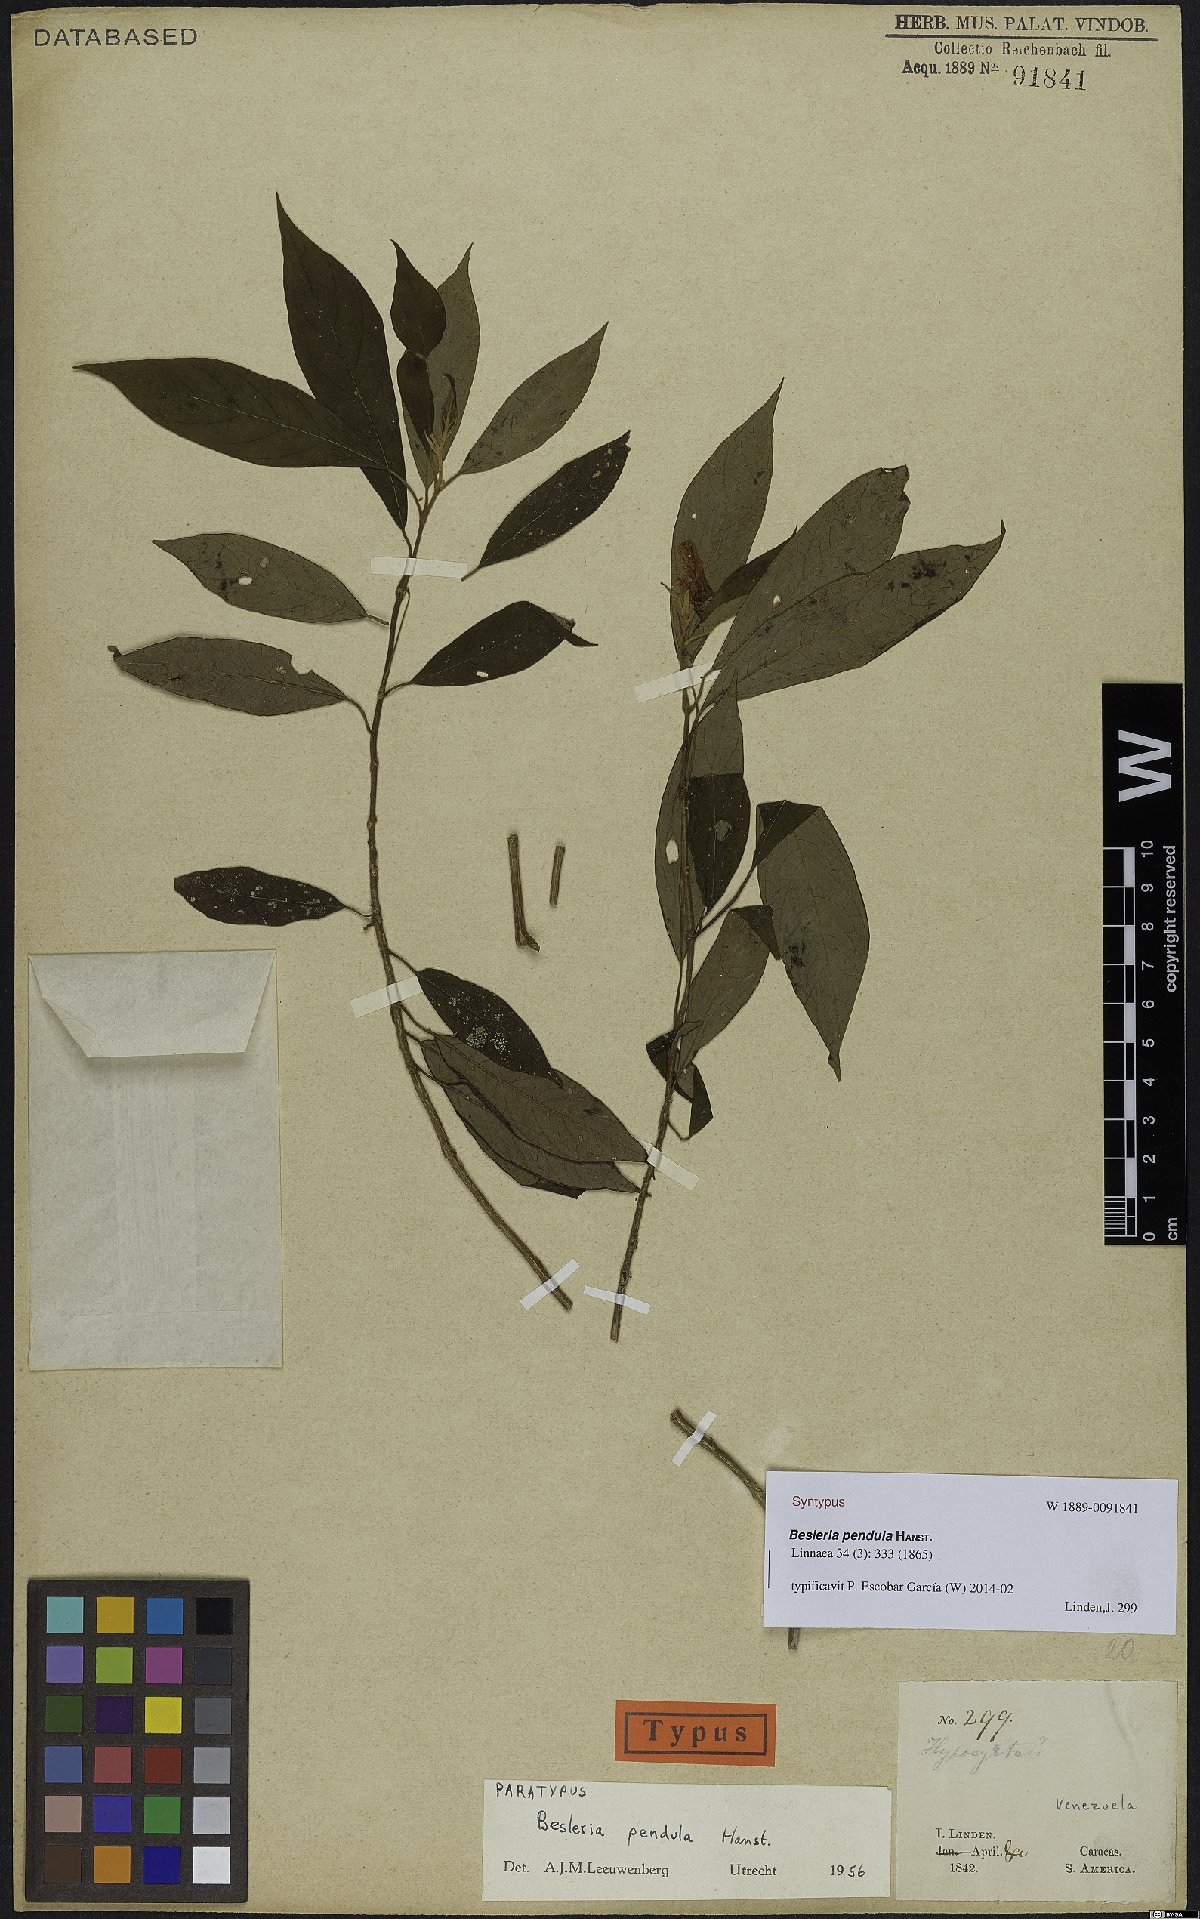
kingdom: Plantae
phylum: Tracheophyta
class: Magnoliopsida
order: Lamiales
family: Gesneriaceae
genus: Besleria
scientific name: Besleria pendula
